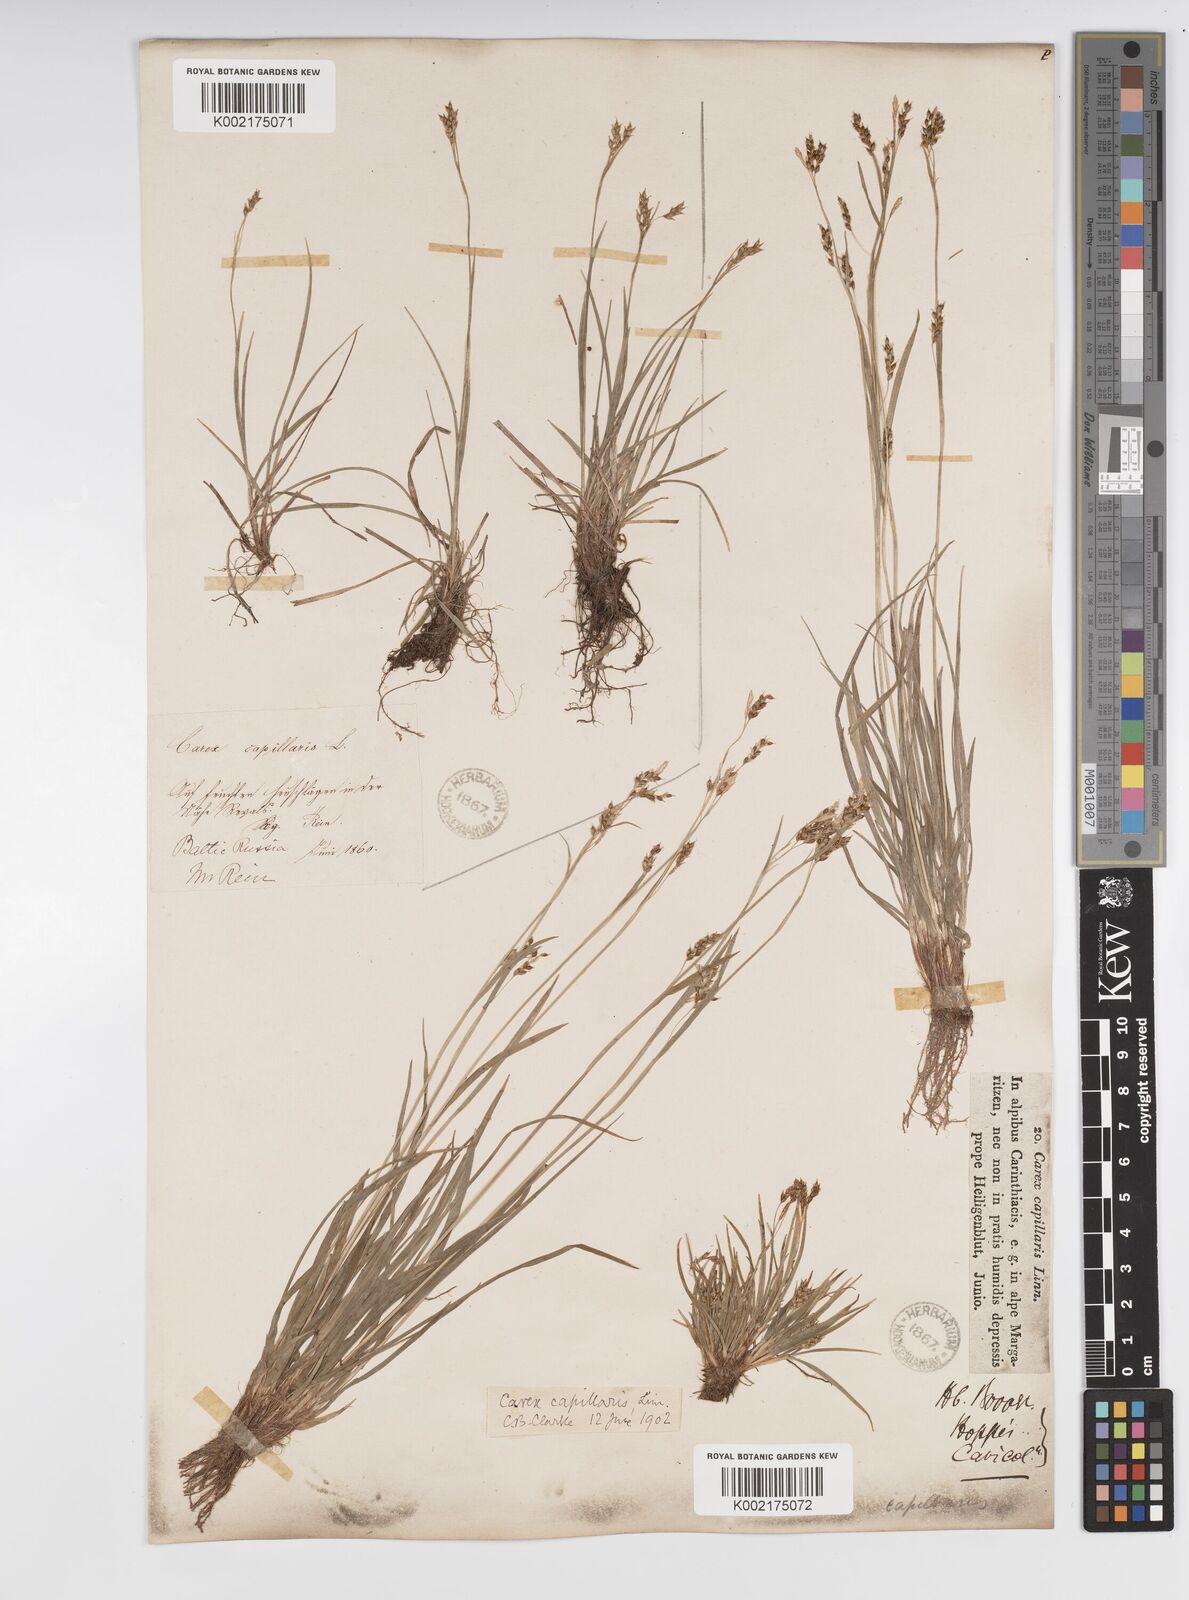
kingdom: Plantae
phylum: Tracheophyta
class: Liliopsida
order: Poales
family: Cyperaceae
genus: Carex
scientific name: Carex capillaris
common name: Hair sedge
